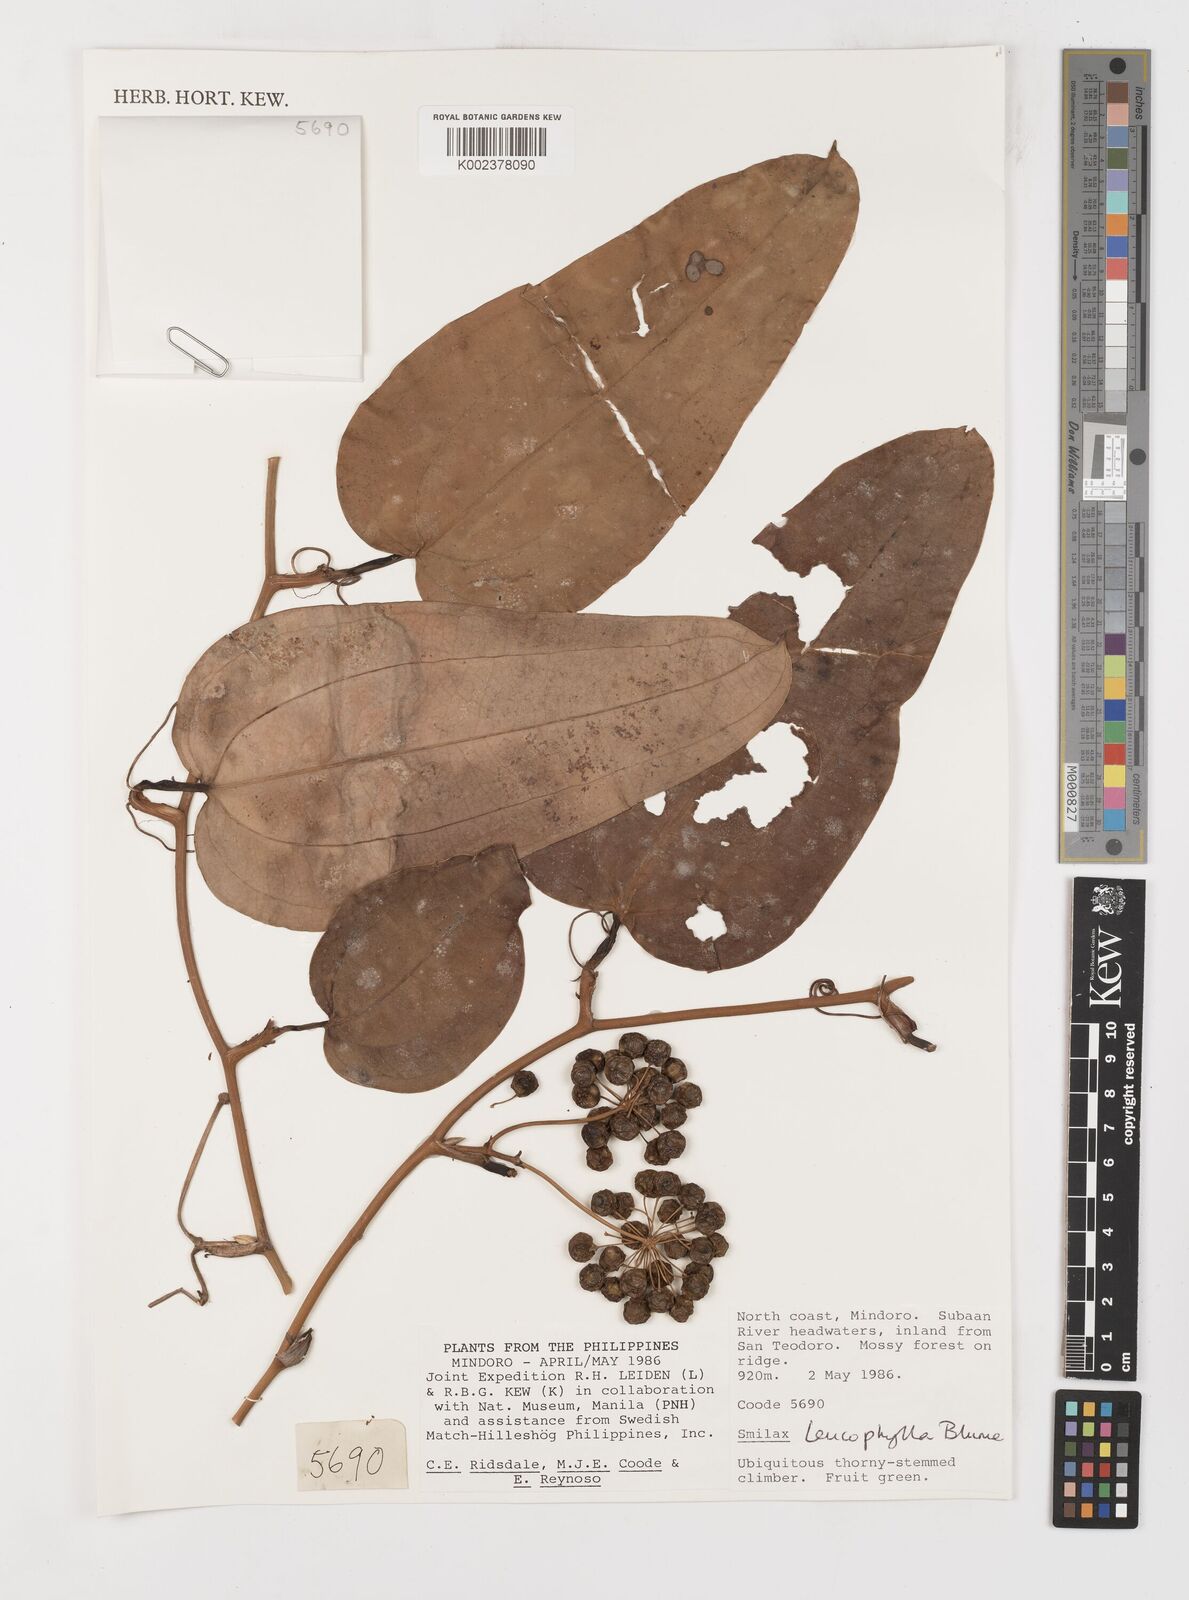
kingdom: Plantae
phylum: Tracheophyta
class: Liliopsida
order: Liliales
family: Smilacaceae
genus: Smilax
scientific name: Smilax leucophylla
